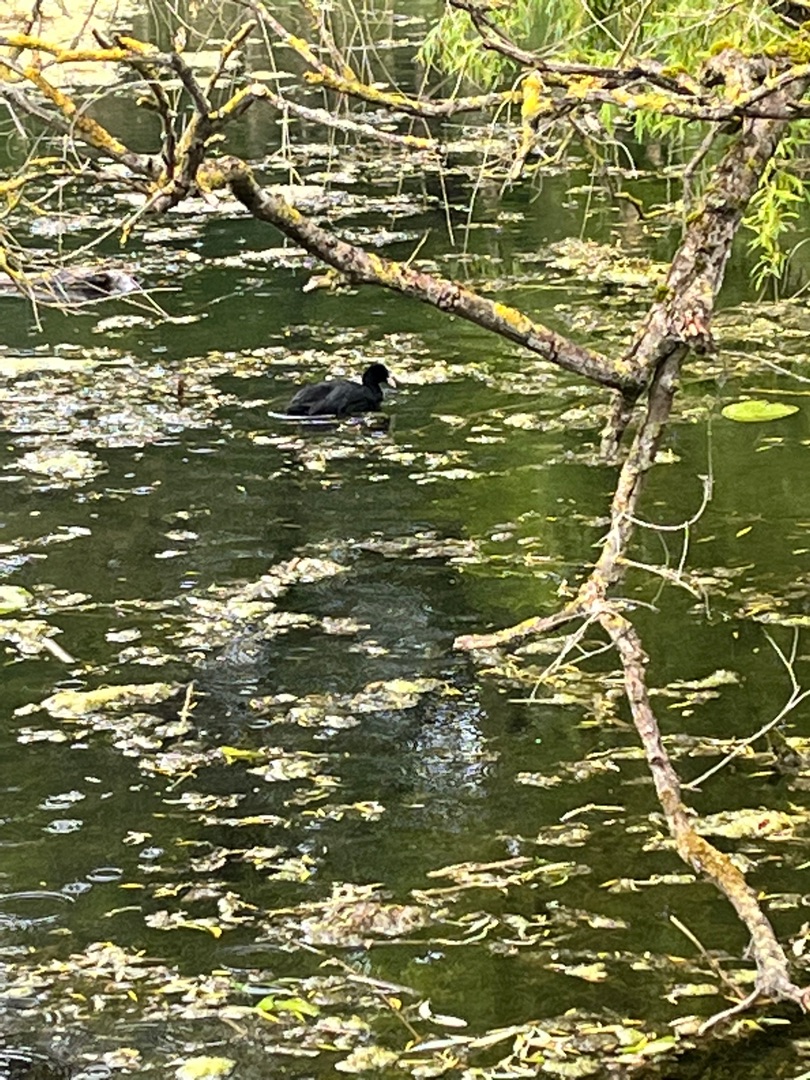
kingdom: Animalia
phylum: Chordata
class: Aves
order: Gruiformes
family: Rallidae
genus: Fulica
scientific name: Fulica atra
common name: Blishøne
